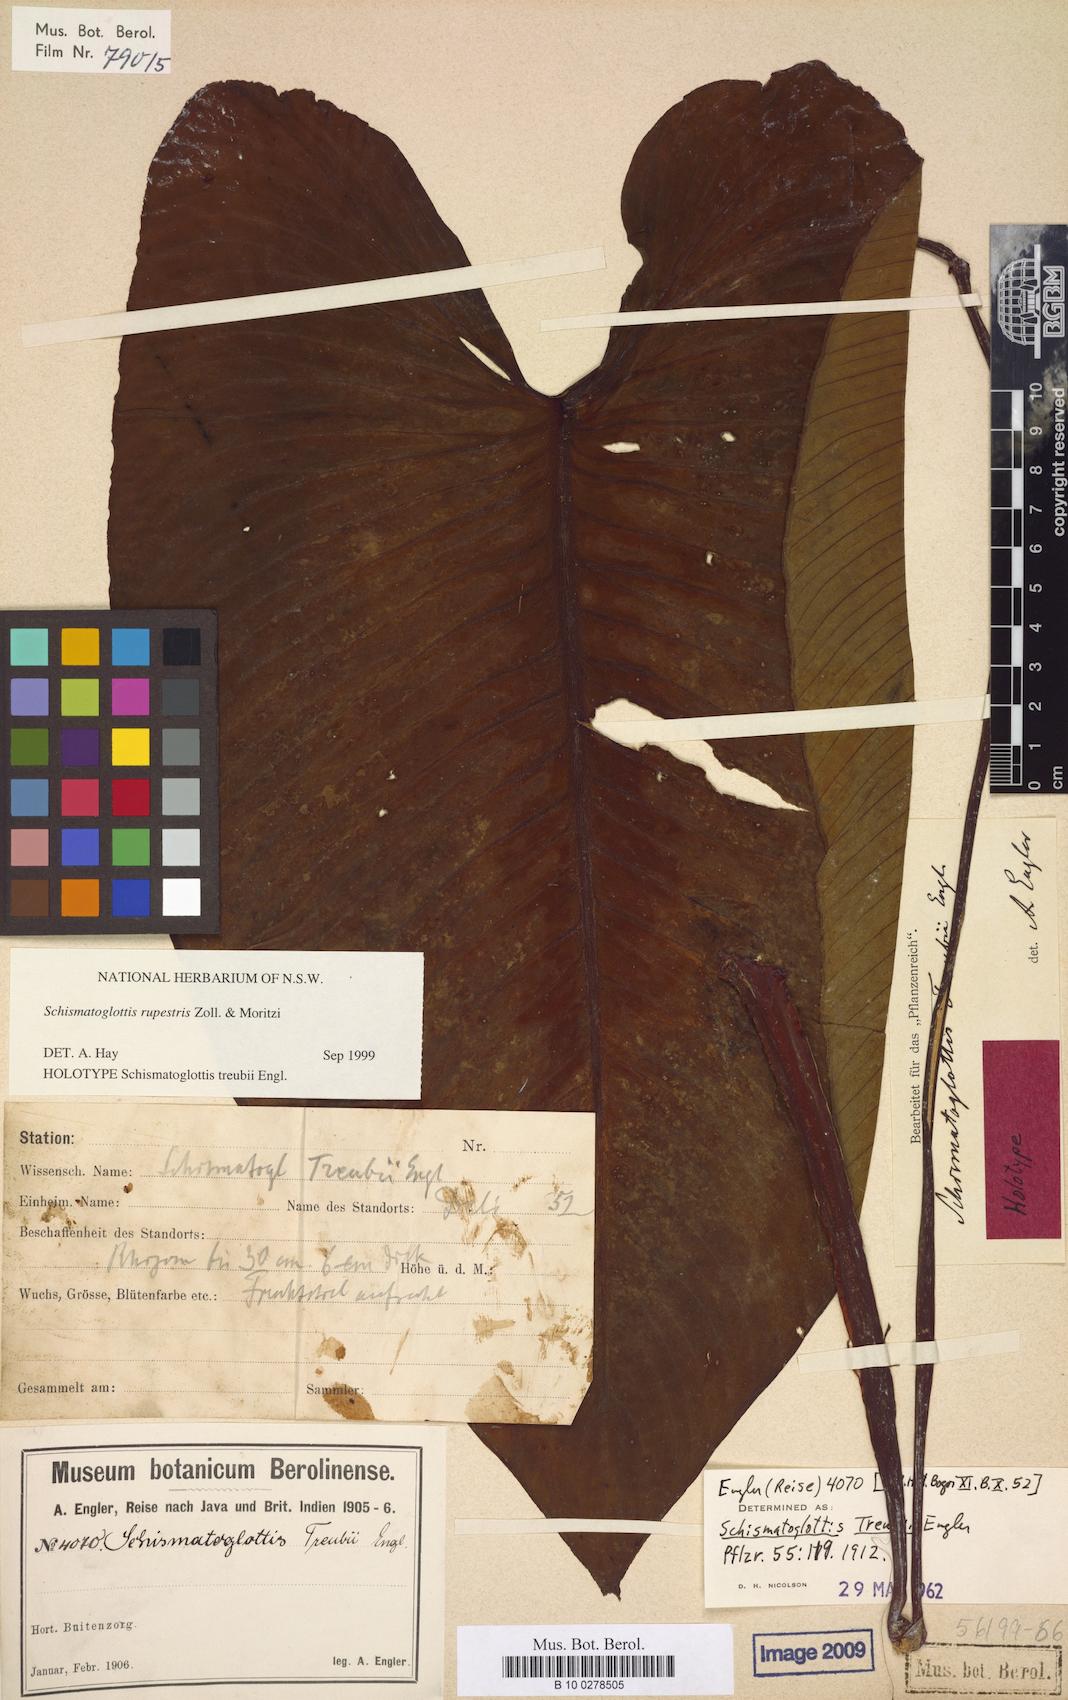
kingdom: Plantae
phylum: Tracheophyta
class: Liliopsida
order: Alismatales
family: Araceae
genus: Apoballis
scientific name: Apoballis rupestris
